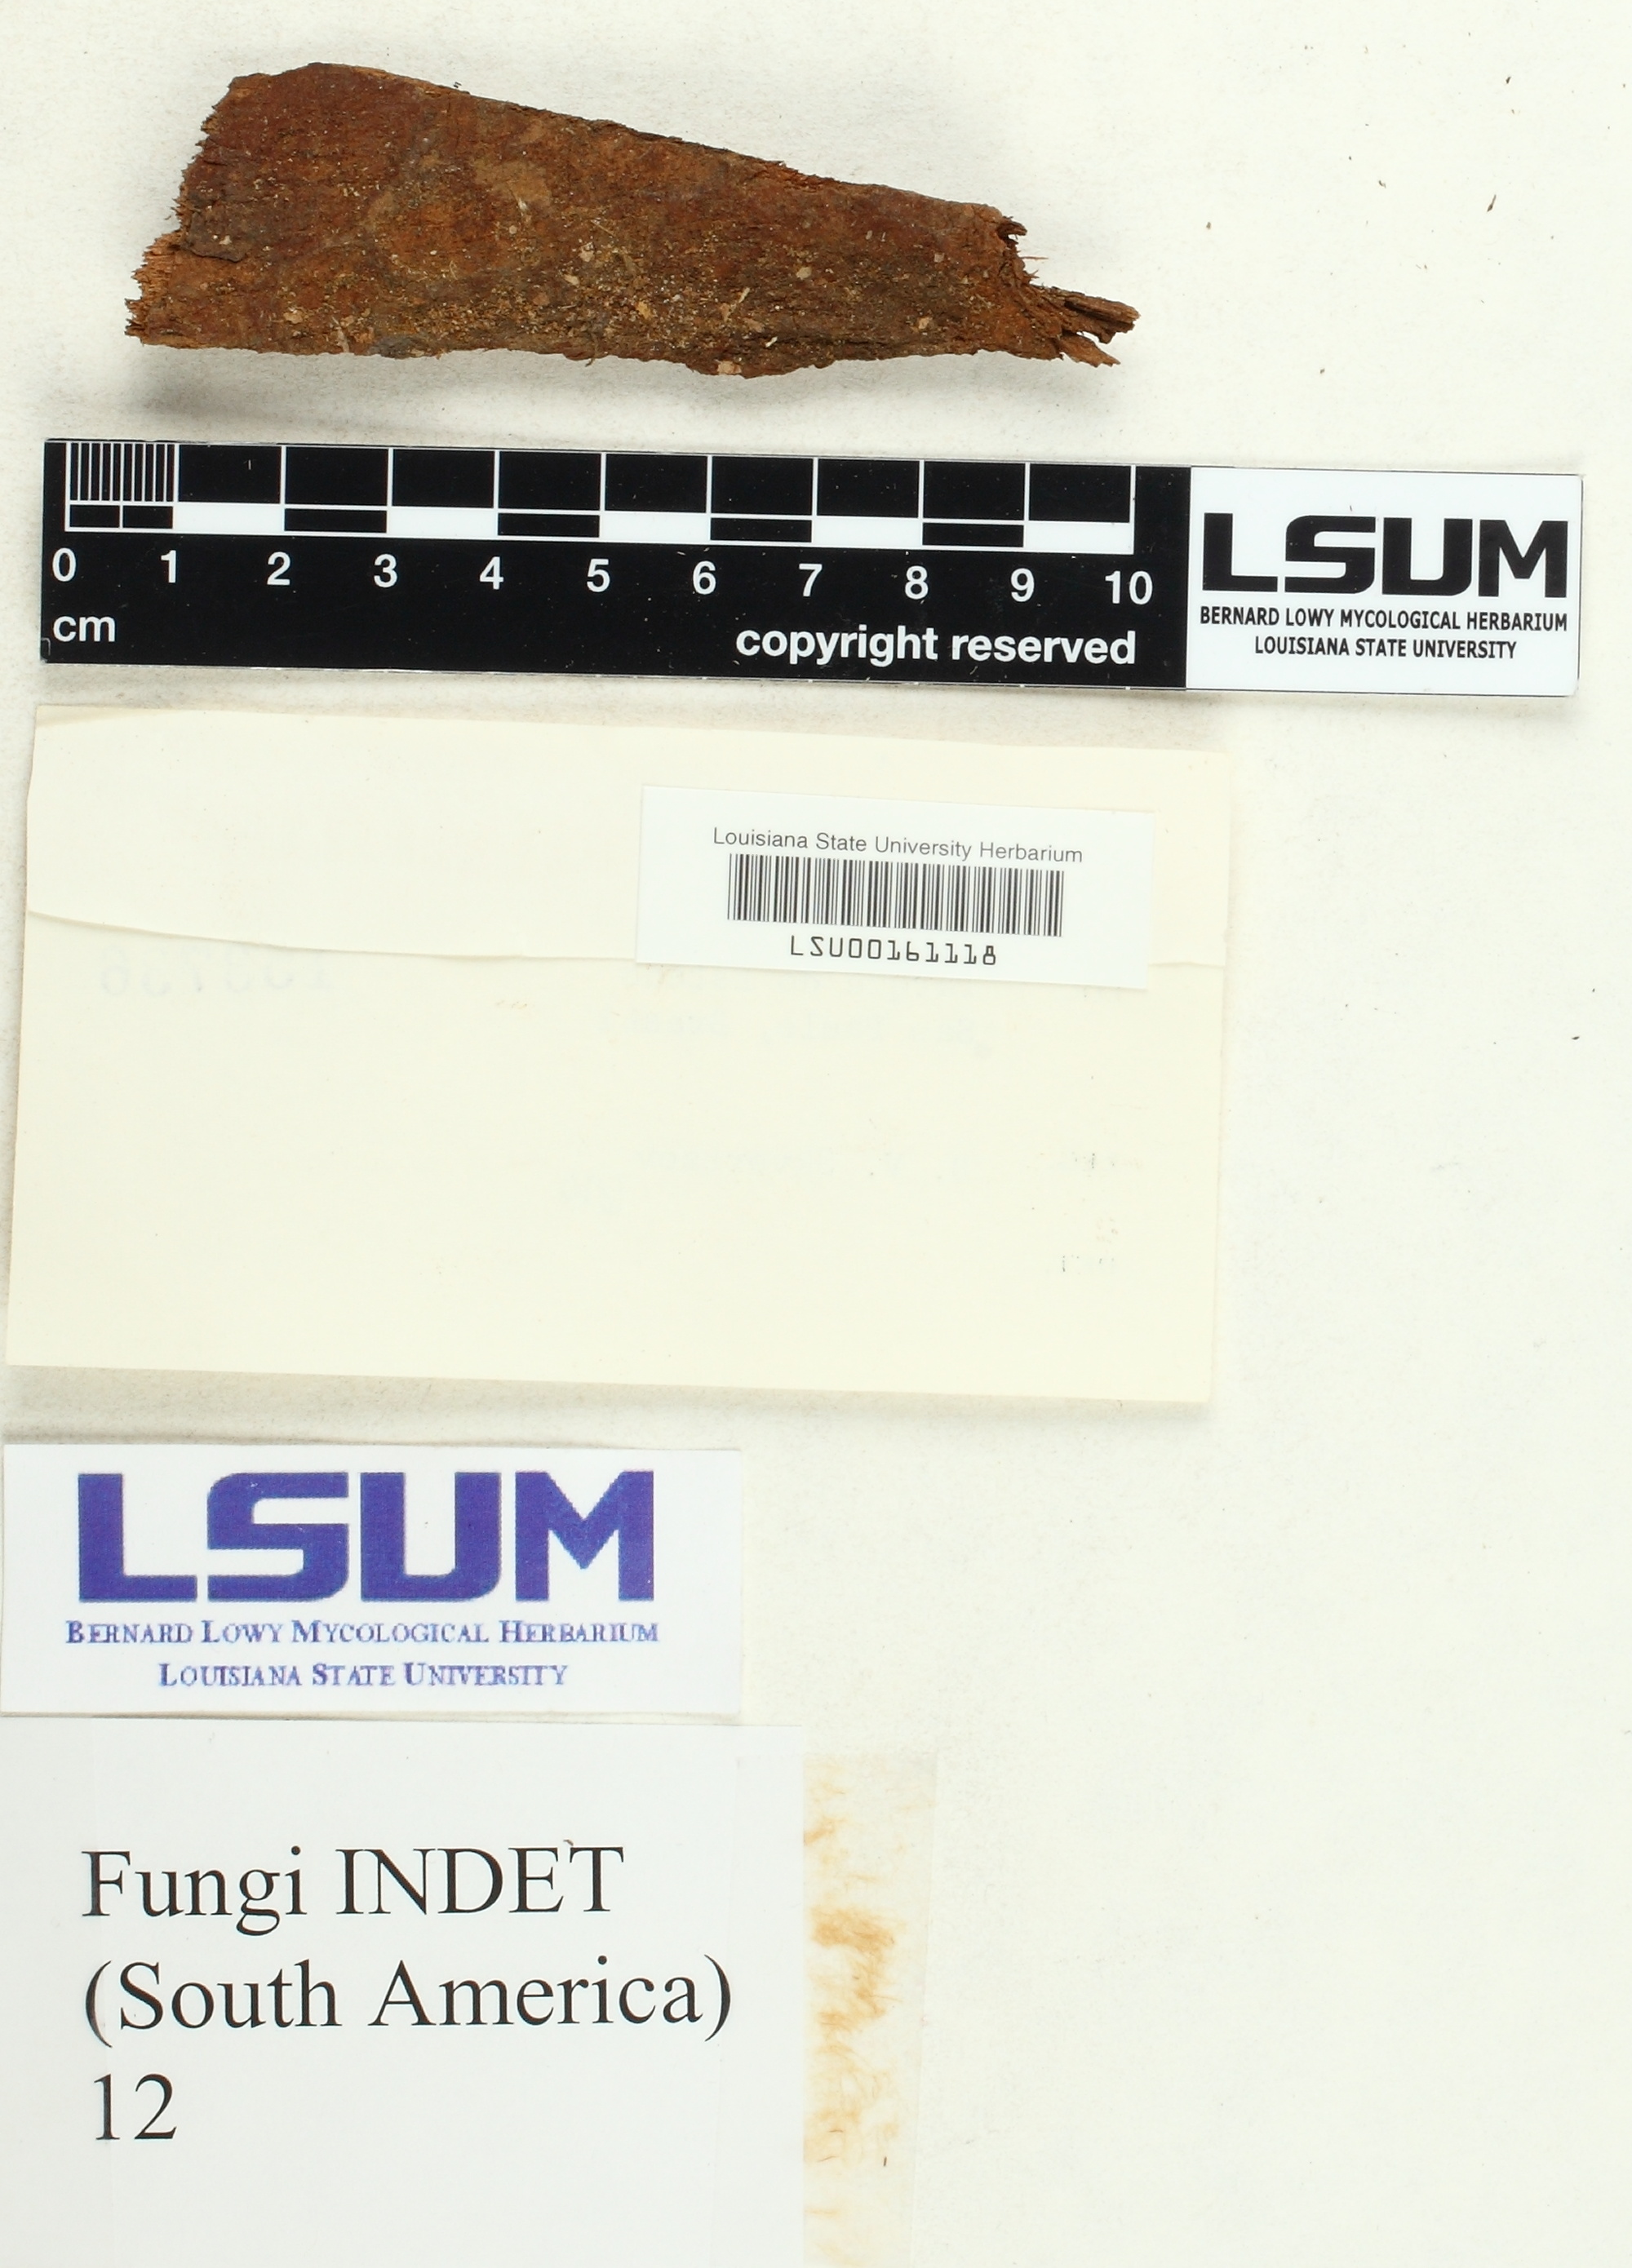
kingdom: Fungi
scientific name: Fungi
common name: Fungi
